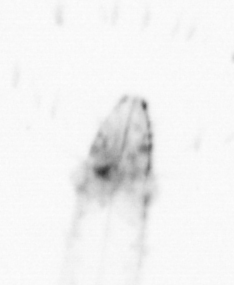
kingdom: Animalia
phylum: Chaetognatha
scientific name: Chaetognatha
